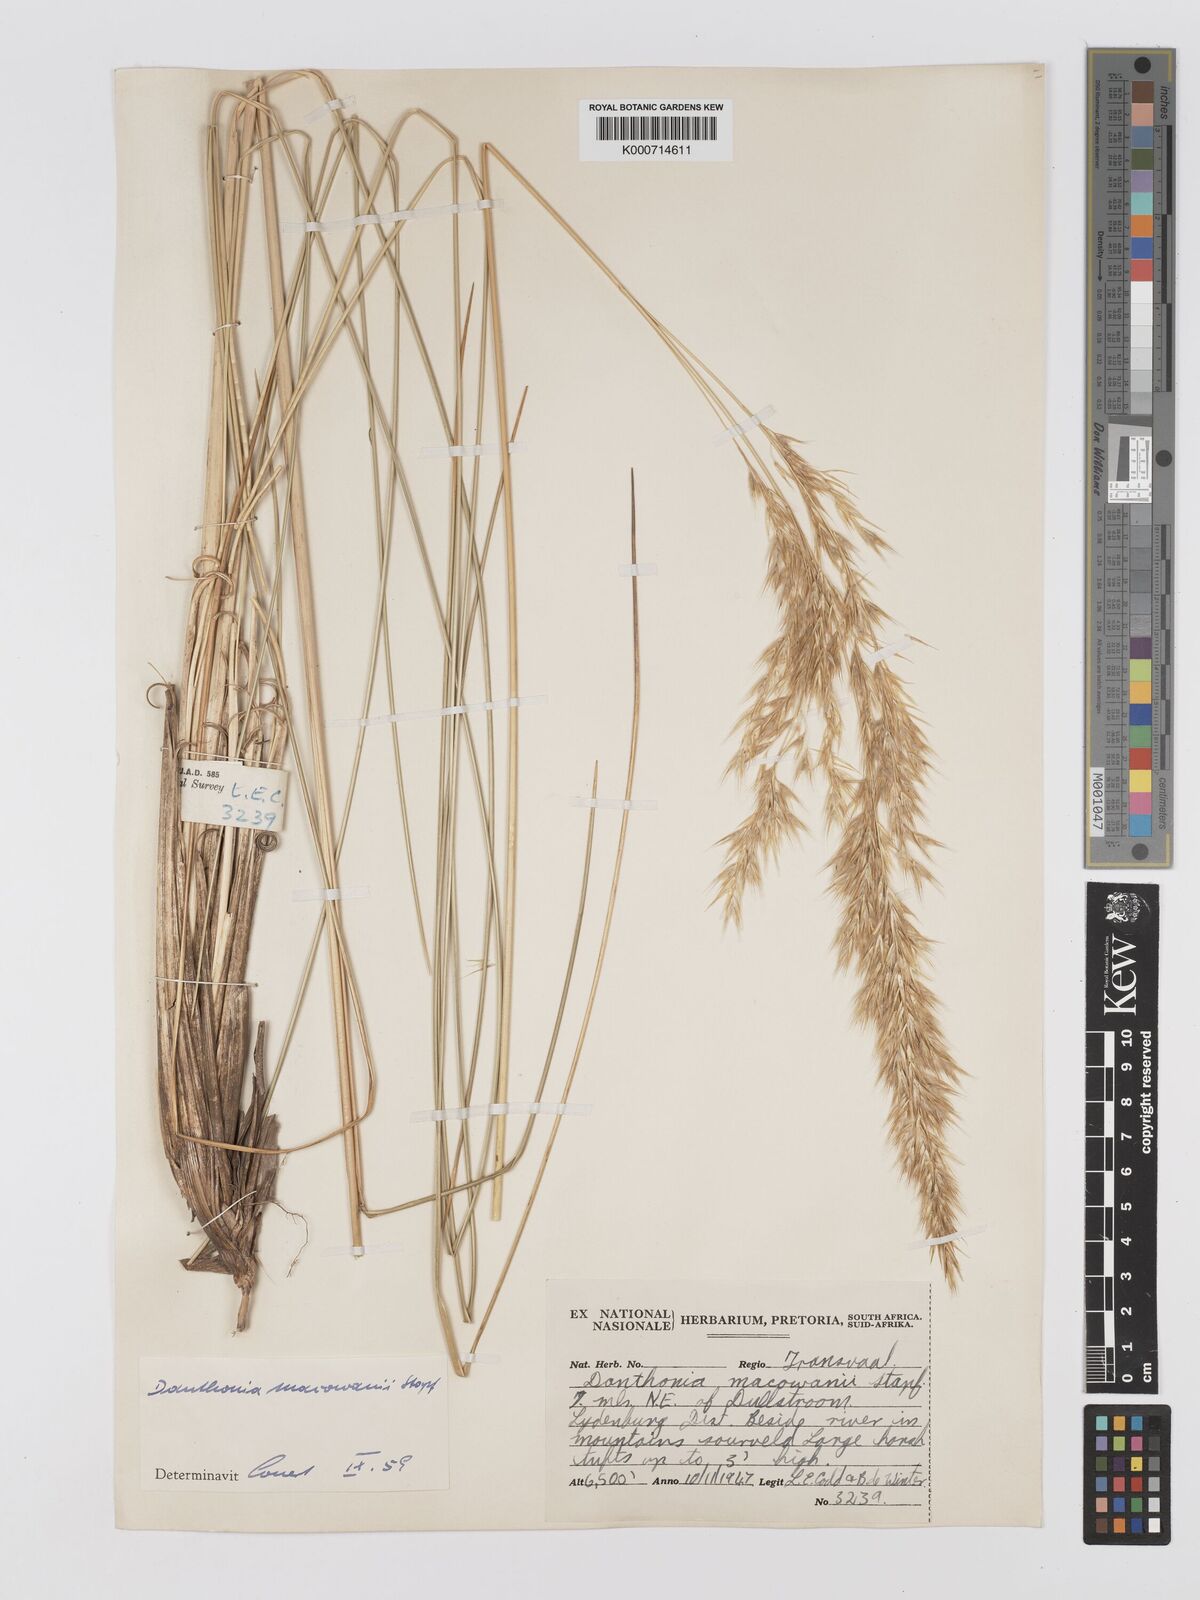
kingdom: Plantae
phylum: Tracheophyta
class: Liliopsida
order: Poales
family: Poaceae
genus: Rytidosperma
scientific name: Rytidosperma
